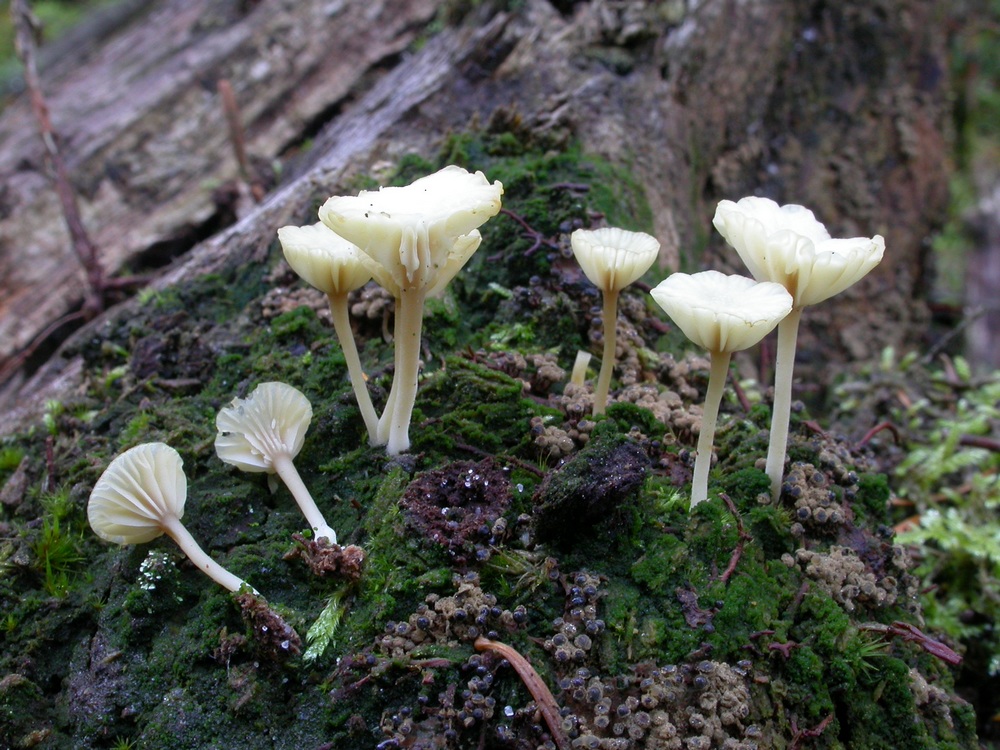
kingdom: Fungi
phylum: Basidiomycota
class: Agaricomycetes
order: Agaricales
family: Hygrophoraceae
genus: Lichenomphalia
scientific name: Lichenomphalia umbellifera
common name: tørve-lavhat
